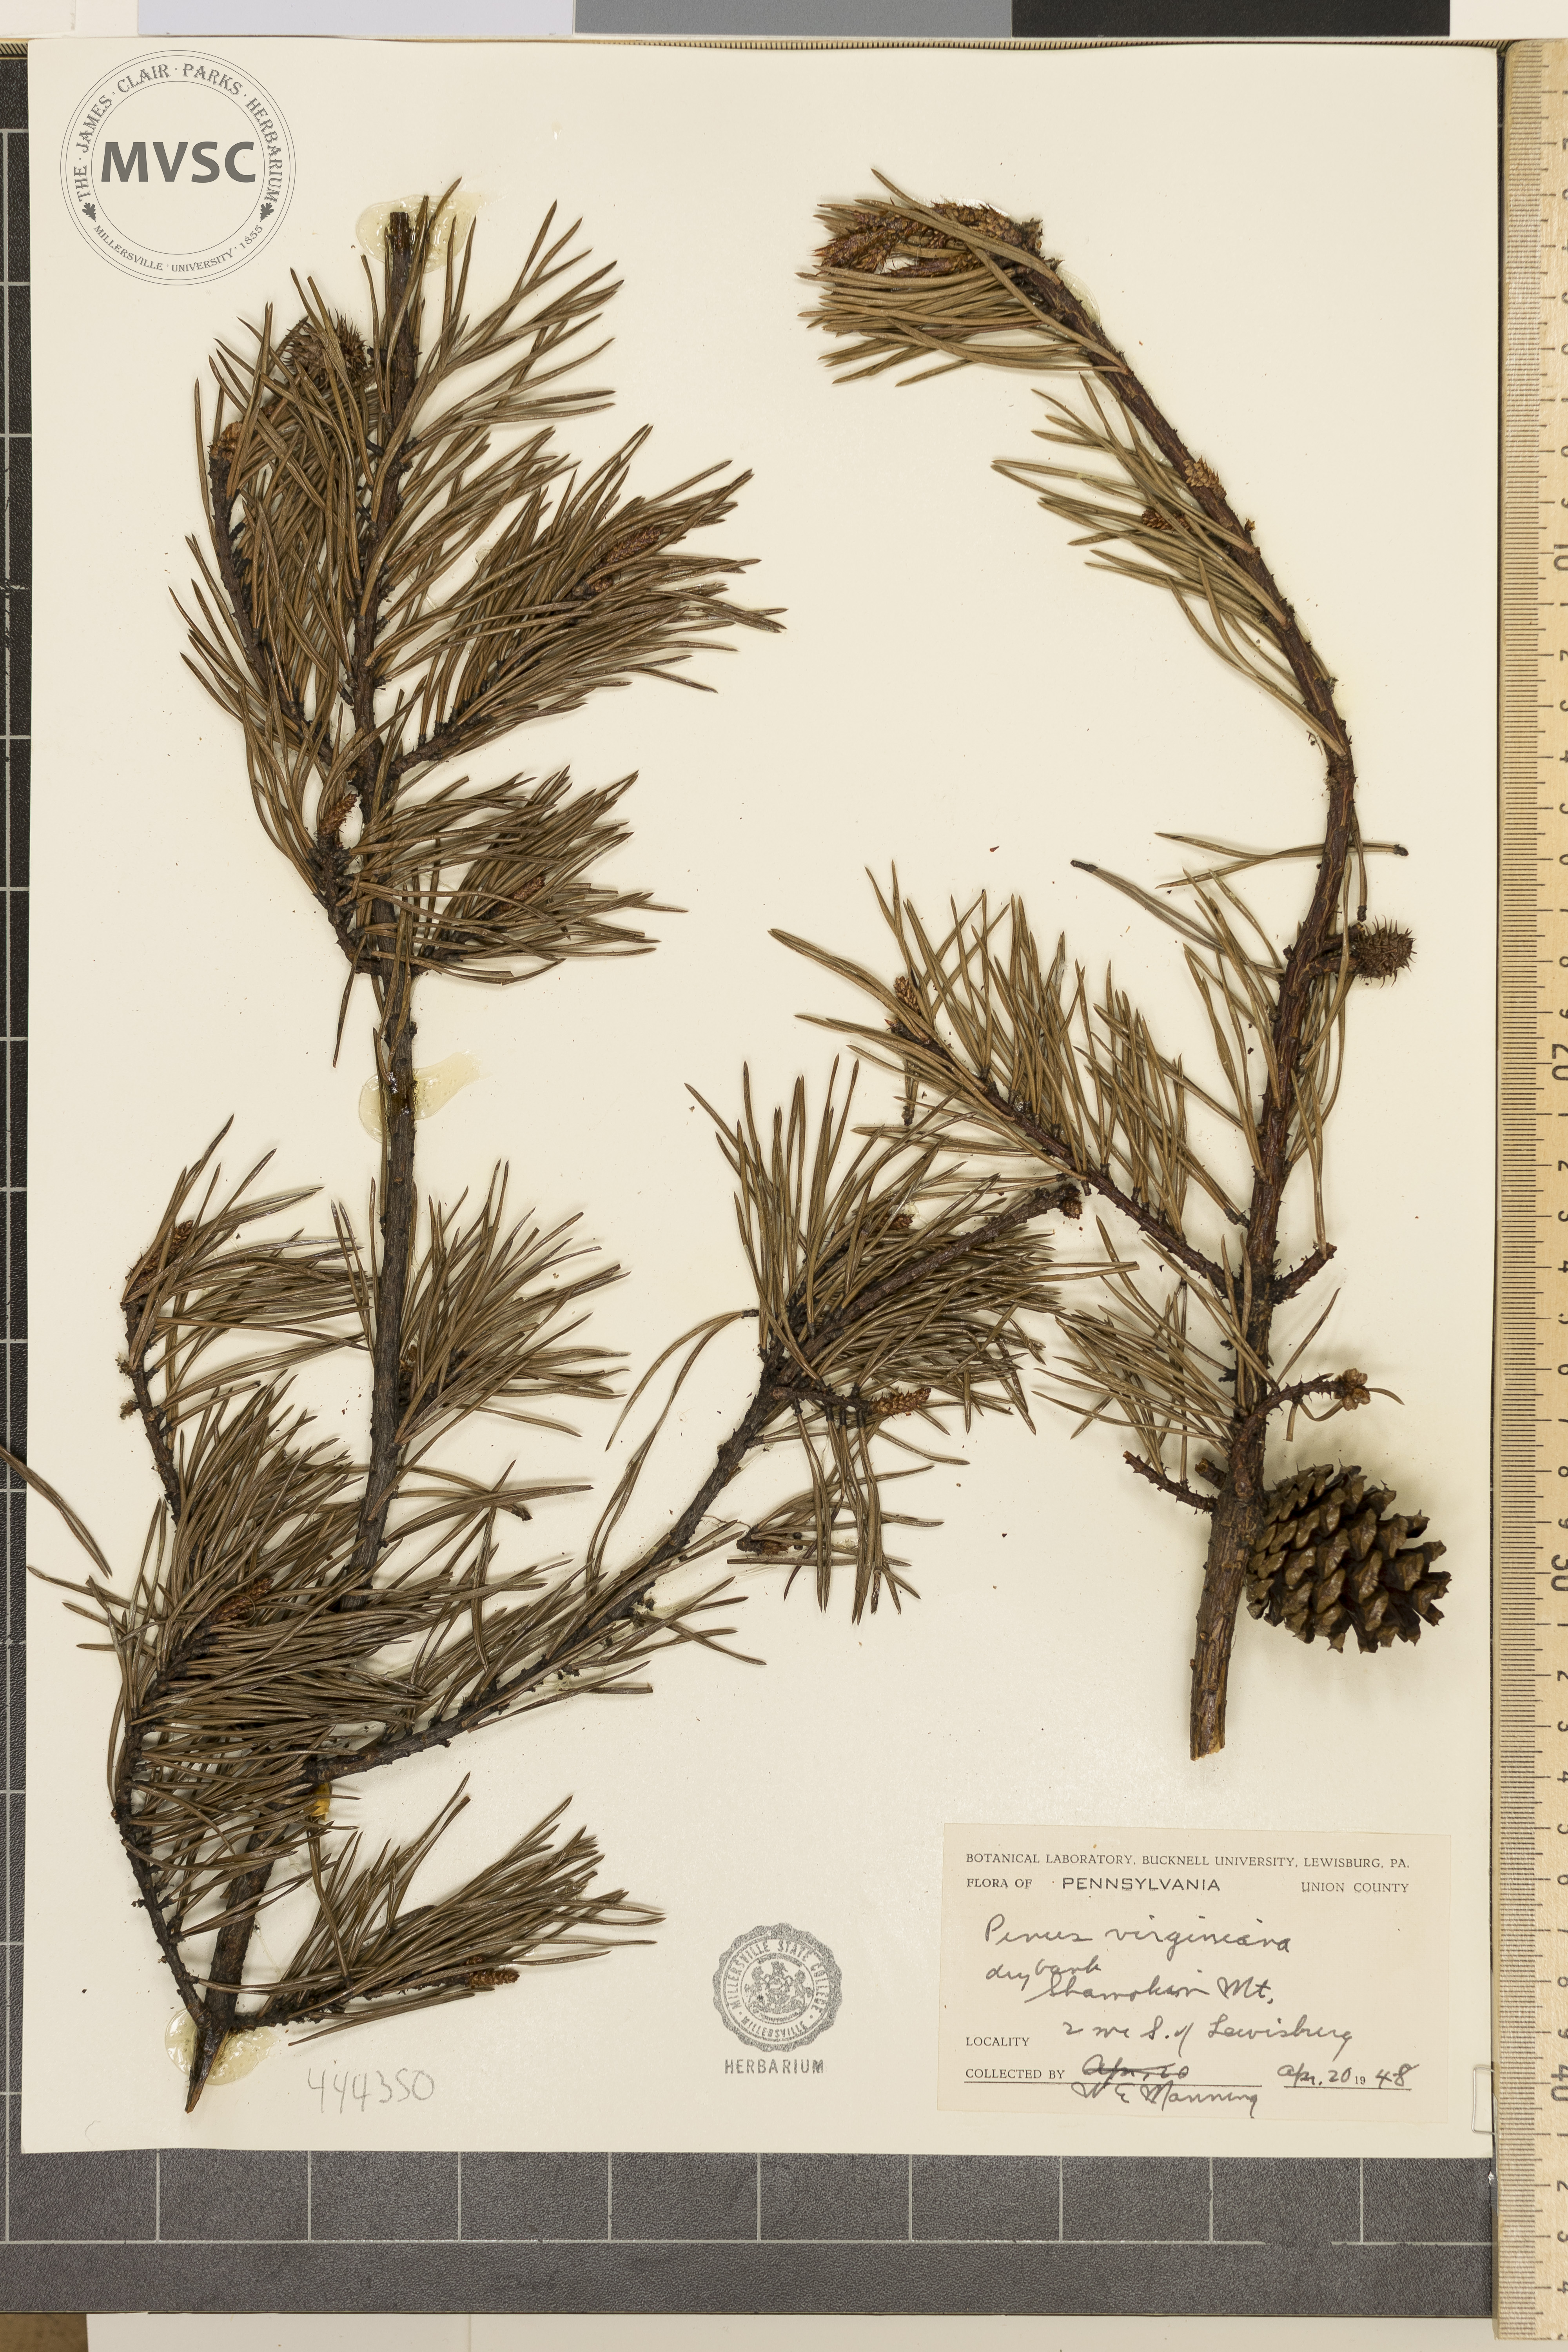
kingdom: Plantae
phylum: Tracheophyta
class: Pinopsida
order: Pinales
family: Pinaceae
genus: Pinus
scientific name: Pinus virginiana
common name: Scrub pine
